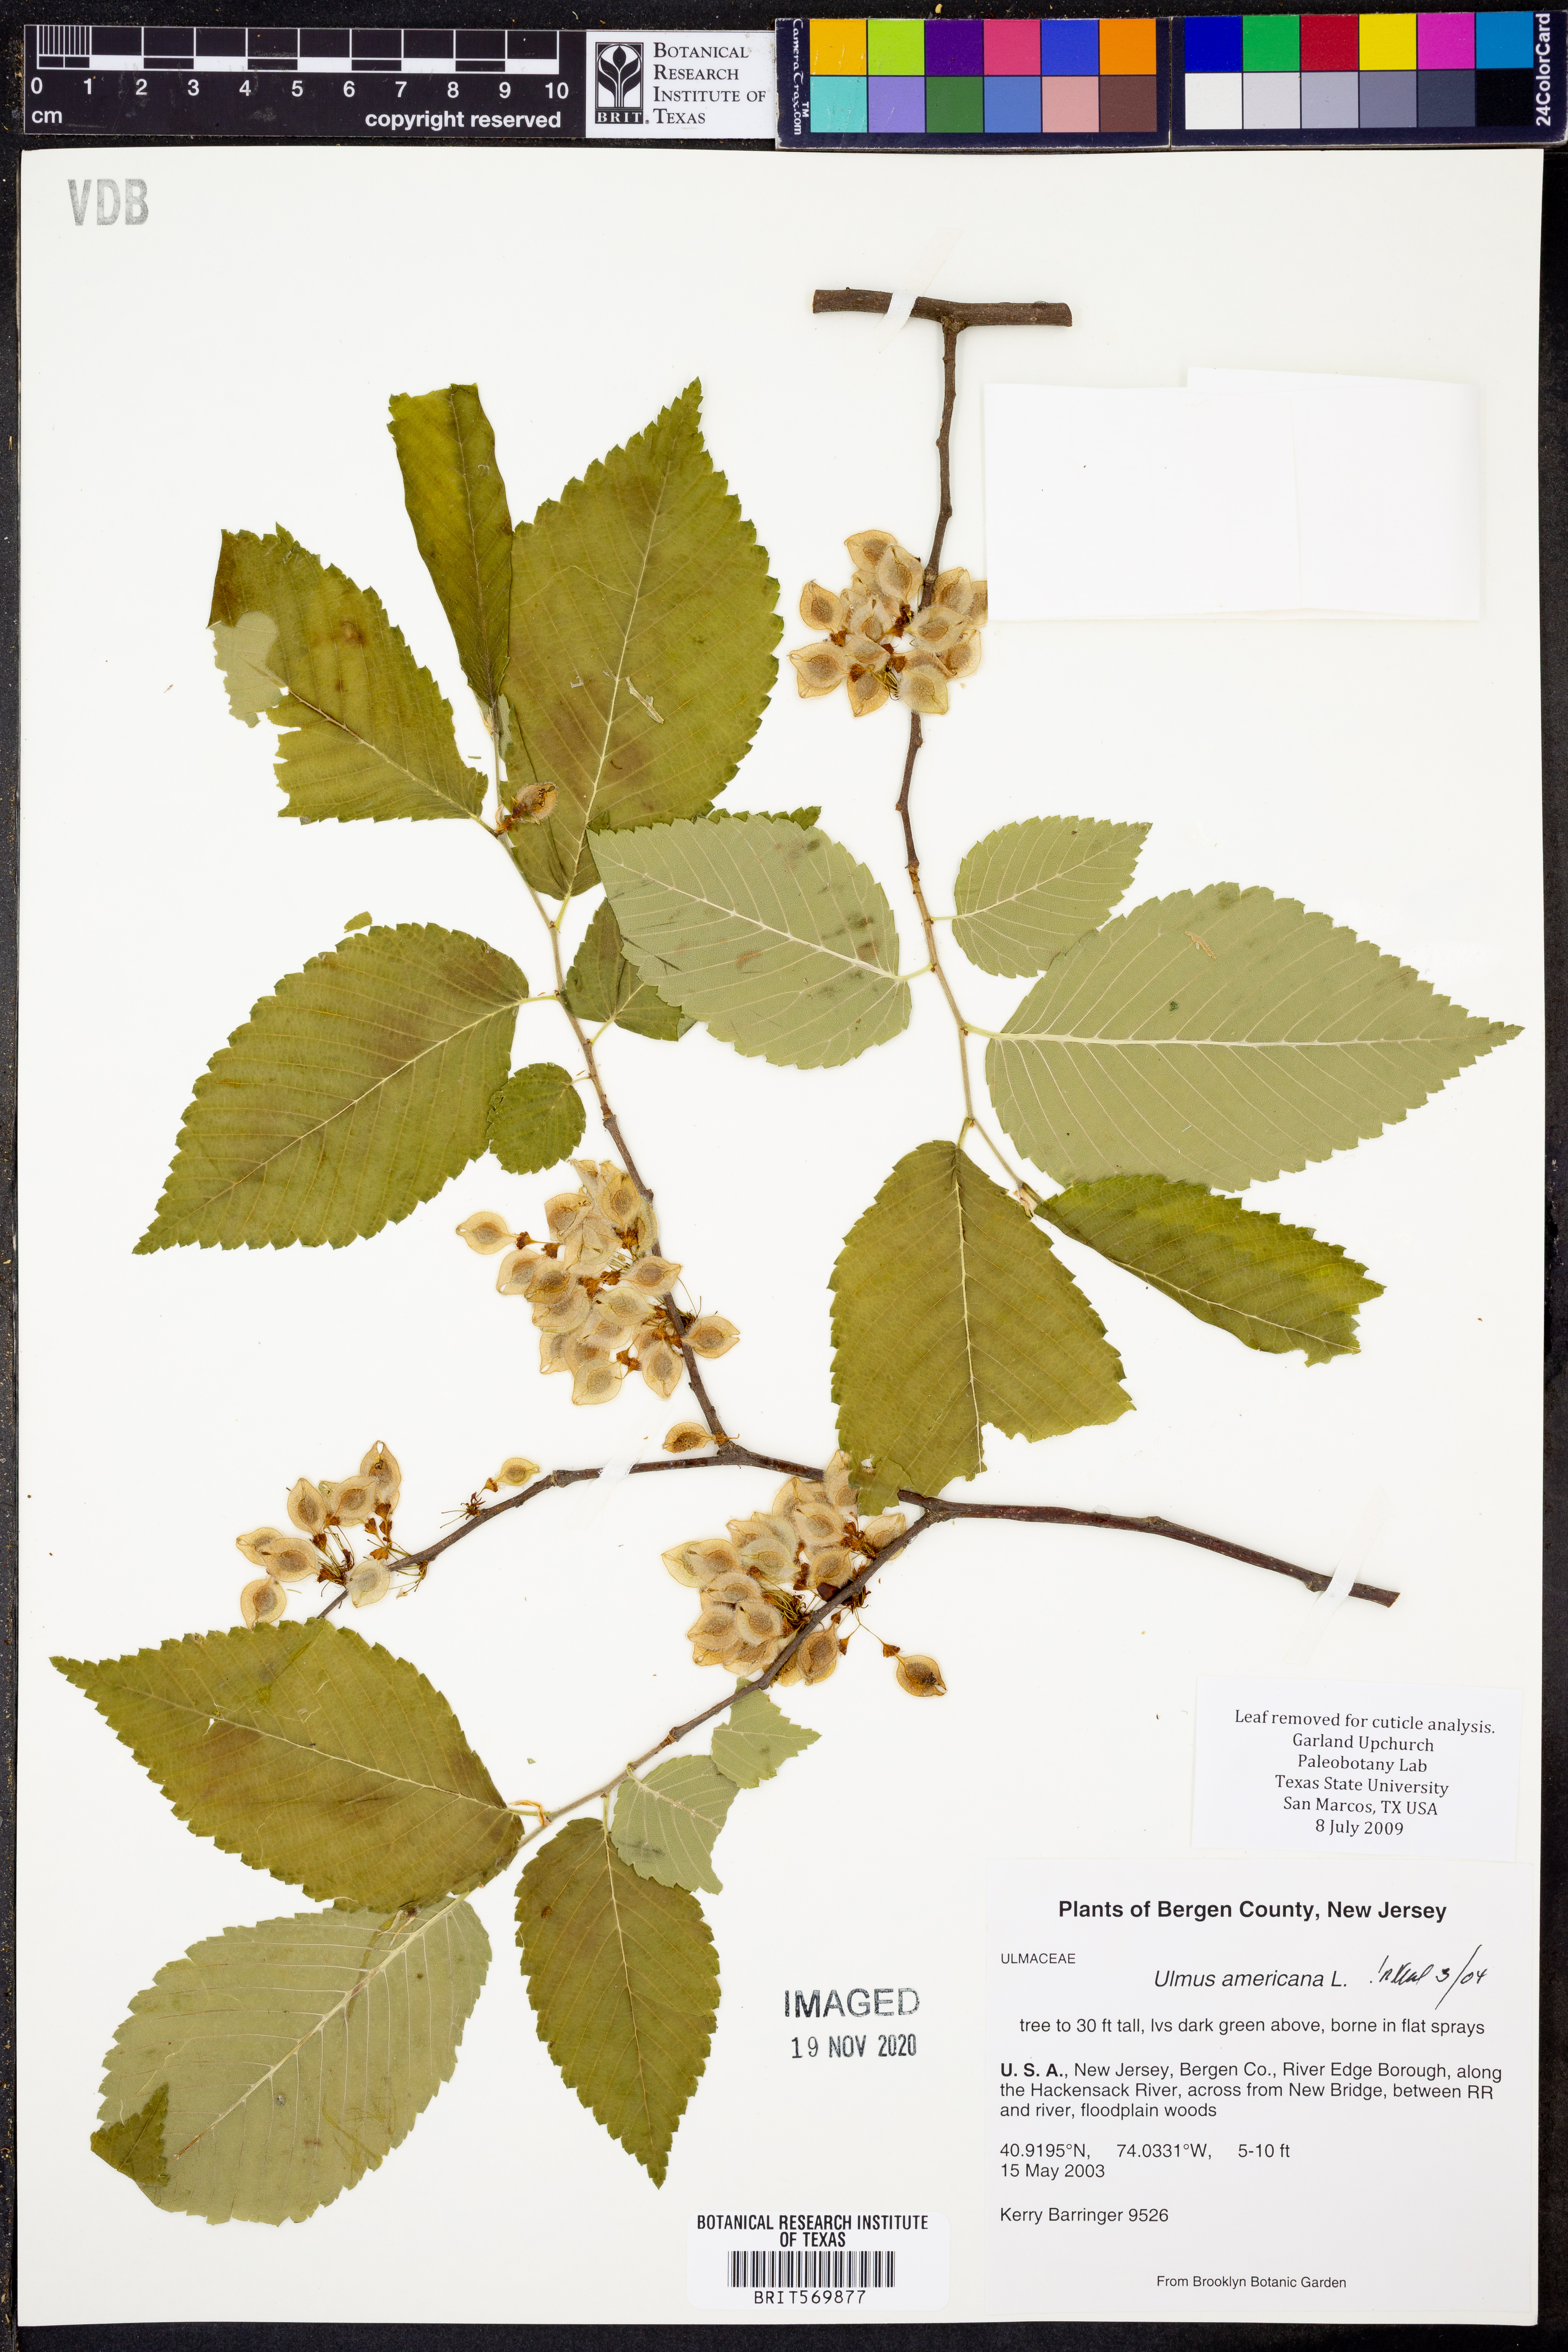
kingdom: Plantae
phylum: Tracheophyta
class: Magnoliopsida
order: Rosales
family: Ulmaceae
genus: Ulmus
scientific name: Ulmus americana
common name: American elm
